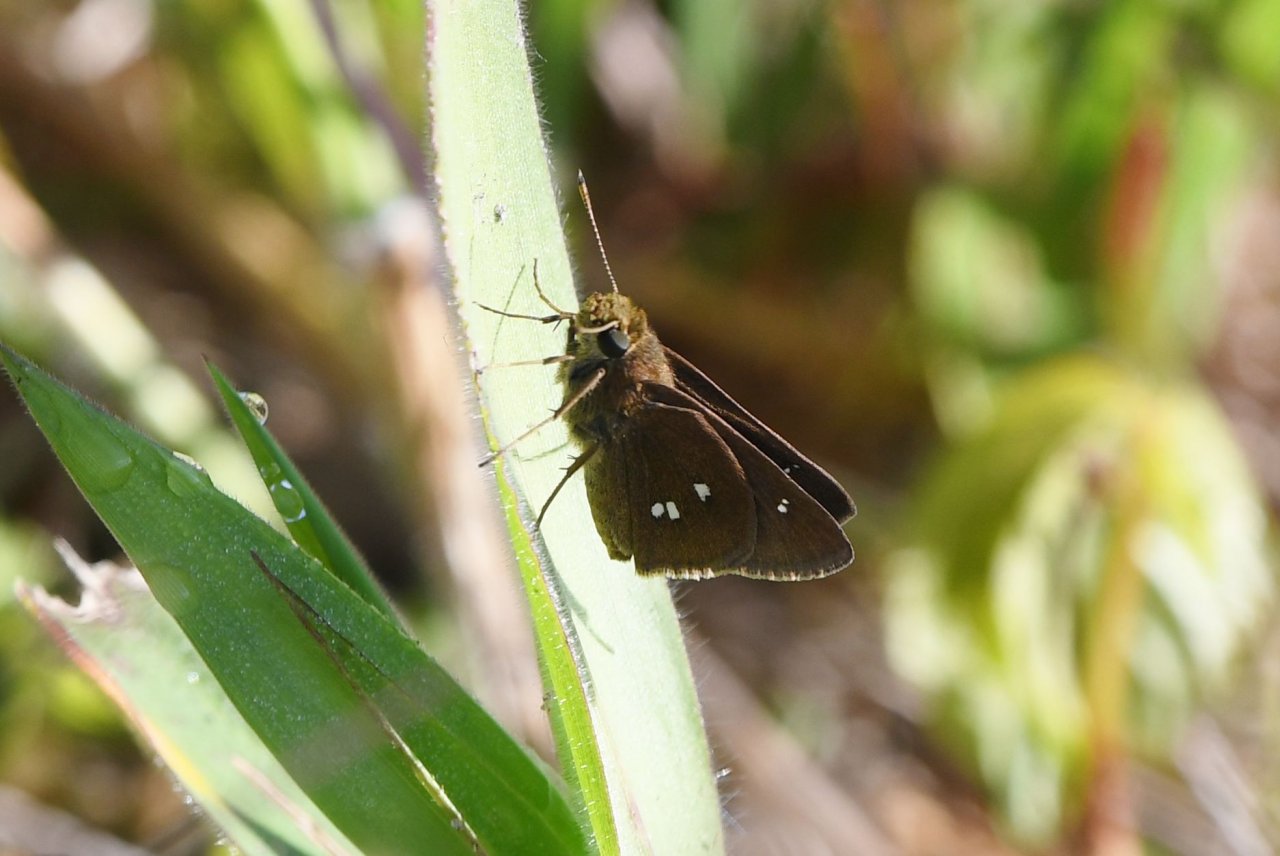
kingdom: Animalia
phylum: Arthropoda
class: Insecta
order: Lepidoptera
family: Hesperiidae
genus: Oligoria
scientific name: Oligoria maculata
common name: Twin-spot Skipper
